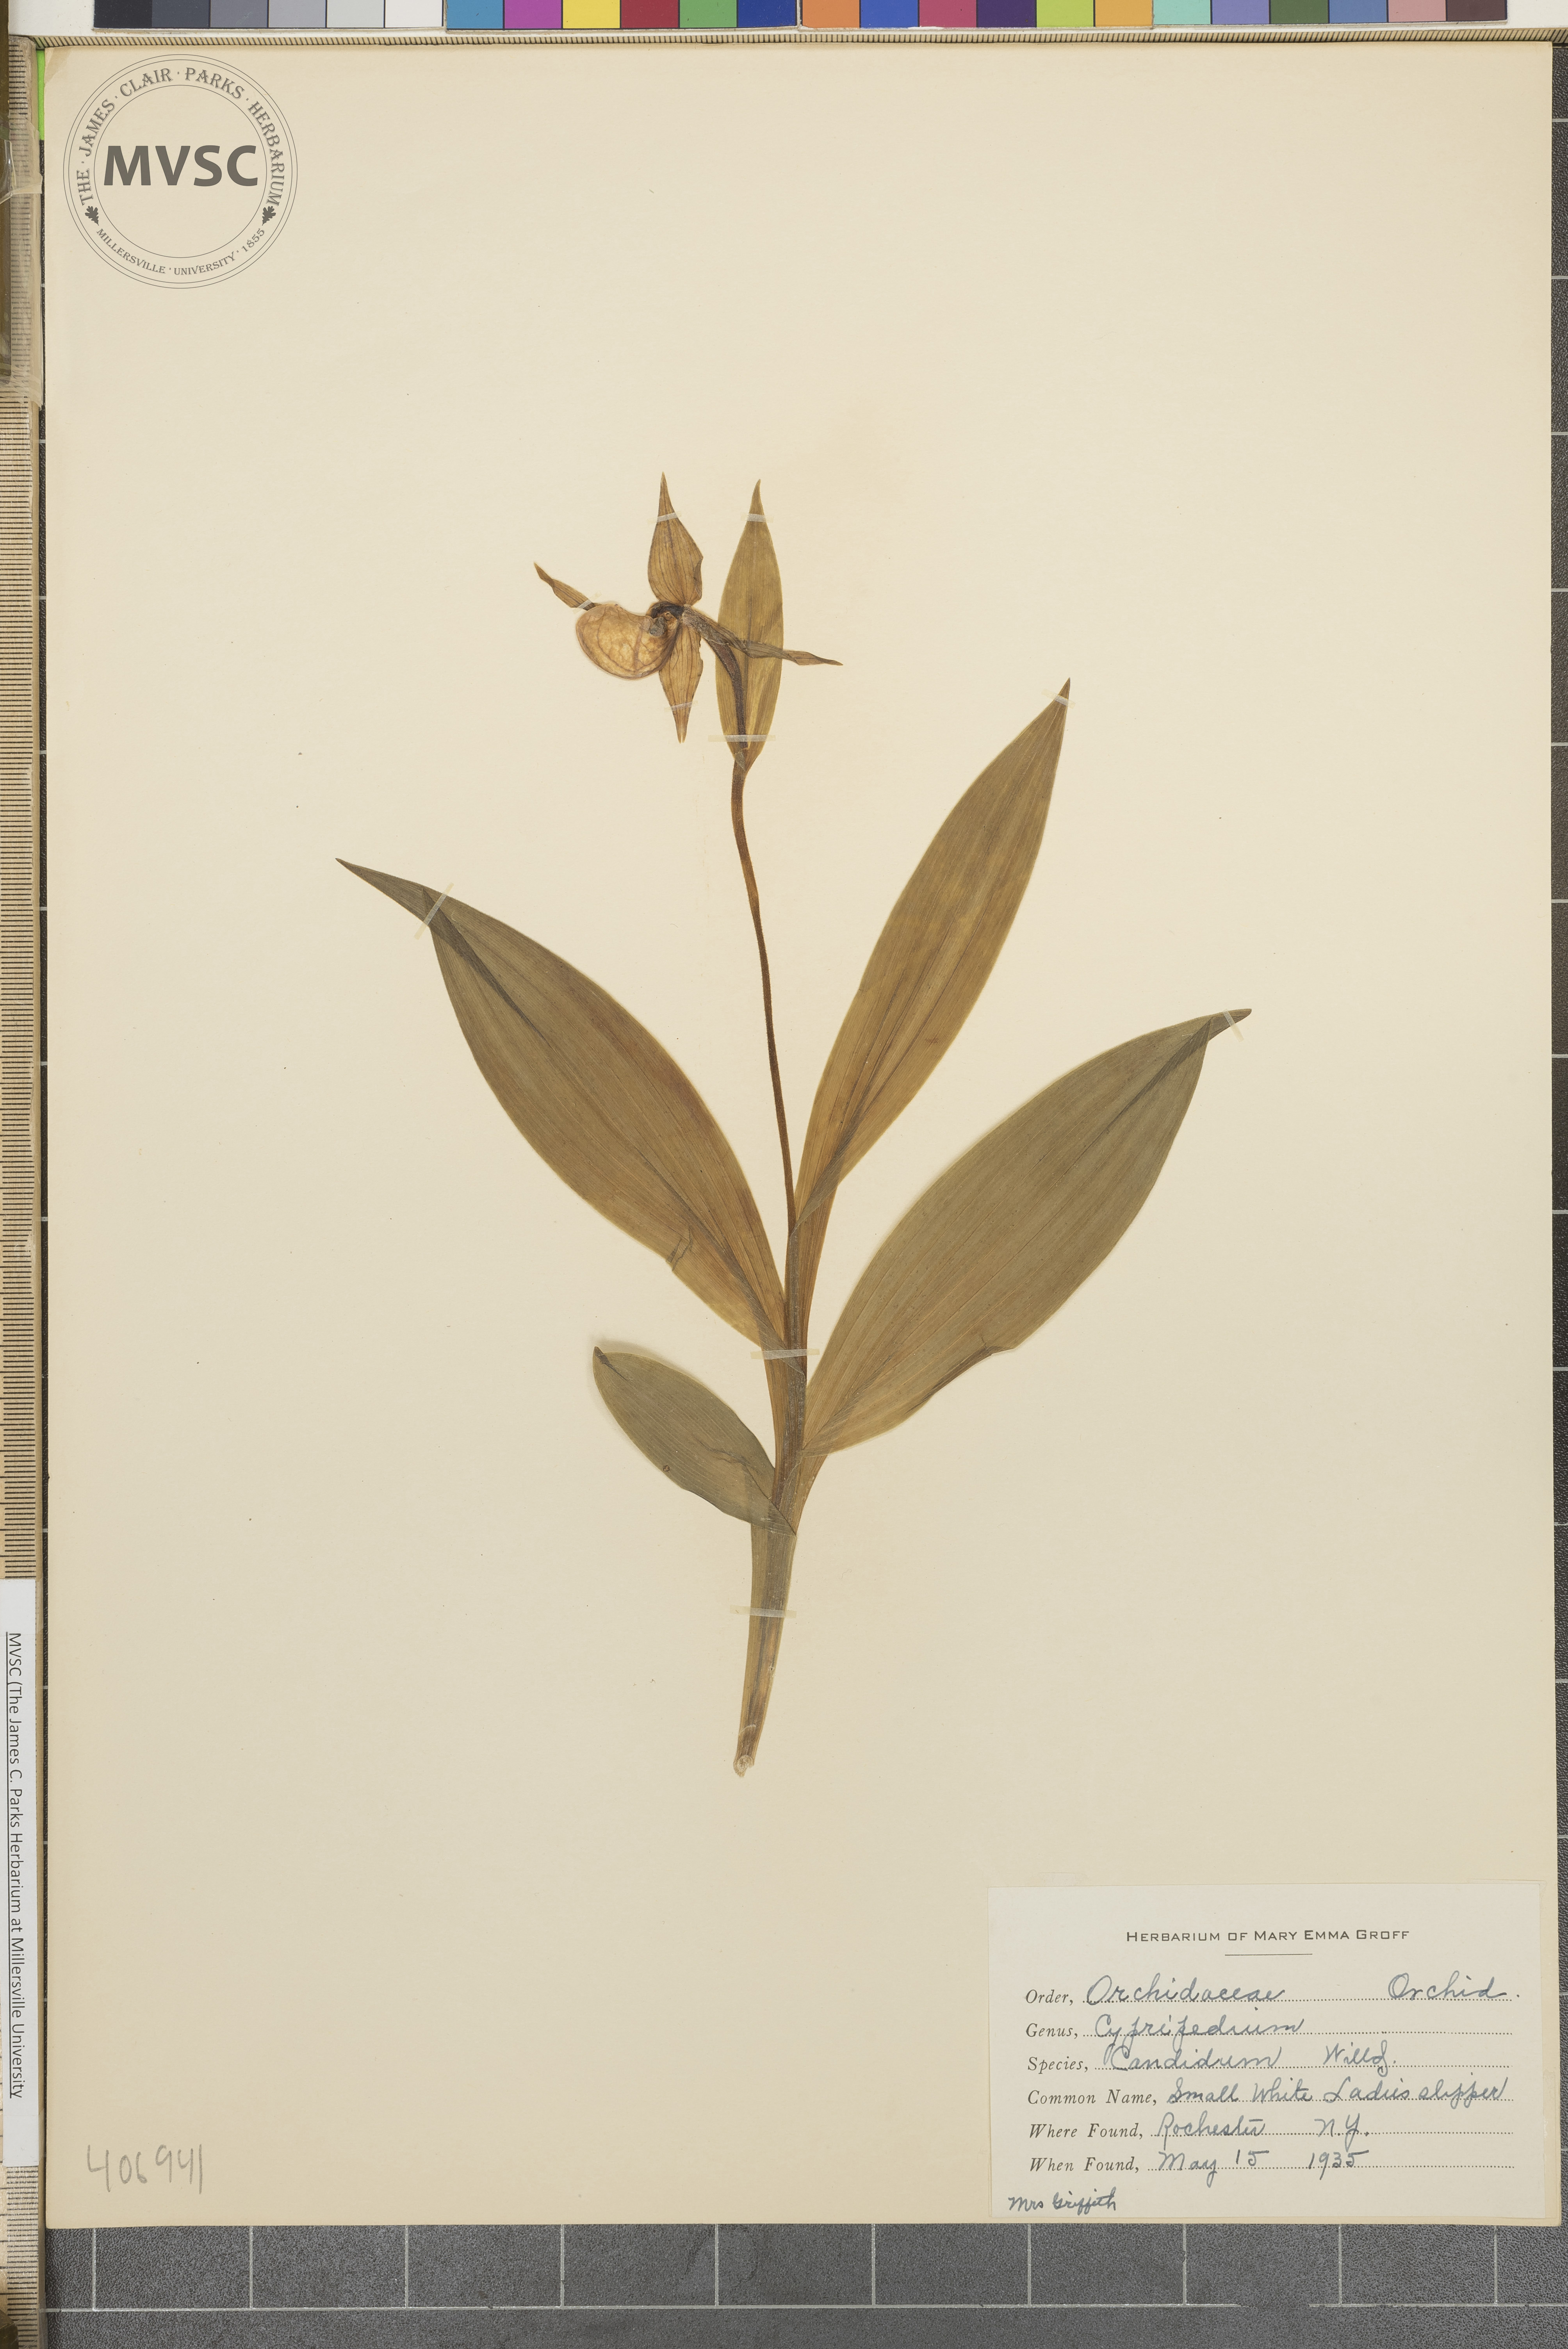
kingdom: Plantae
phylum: Tracheophyta
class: Liliopsida
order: Asparagales
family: Orchidaceae
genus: Cypripedium
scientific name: Cypripedium candidum
